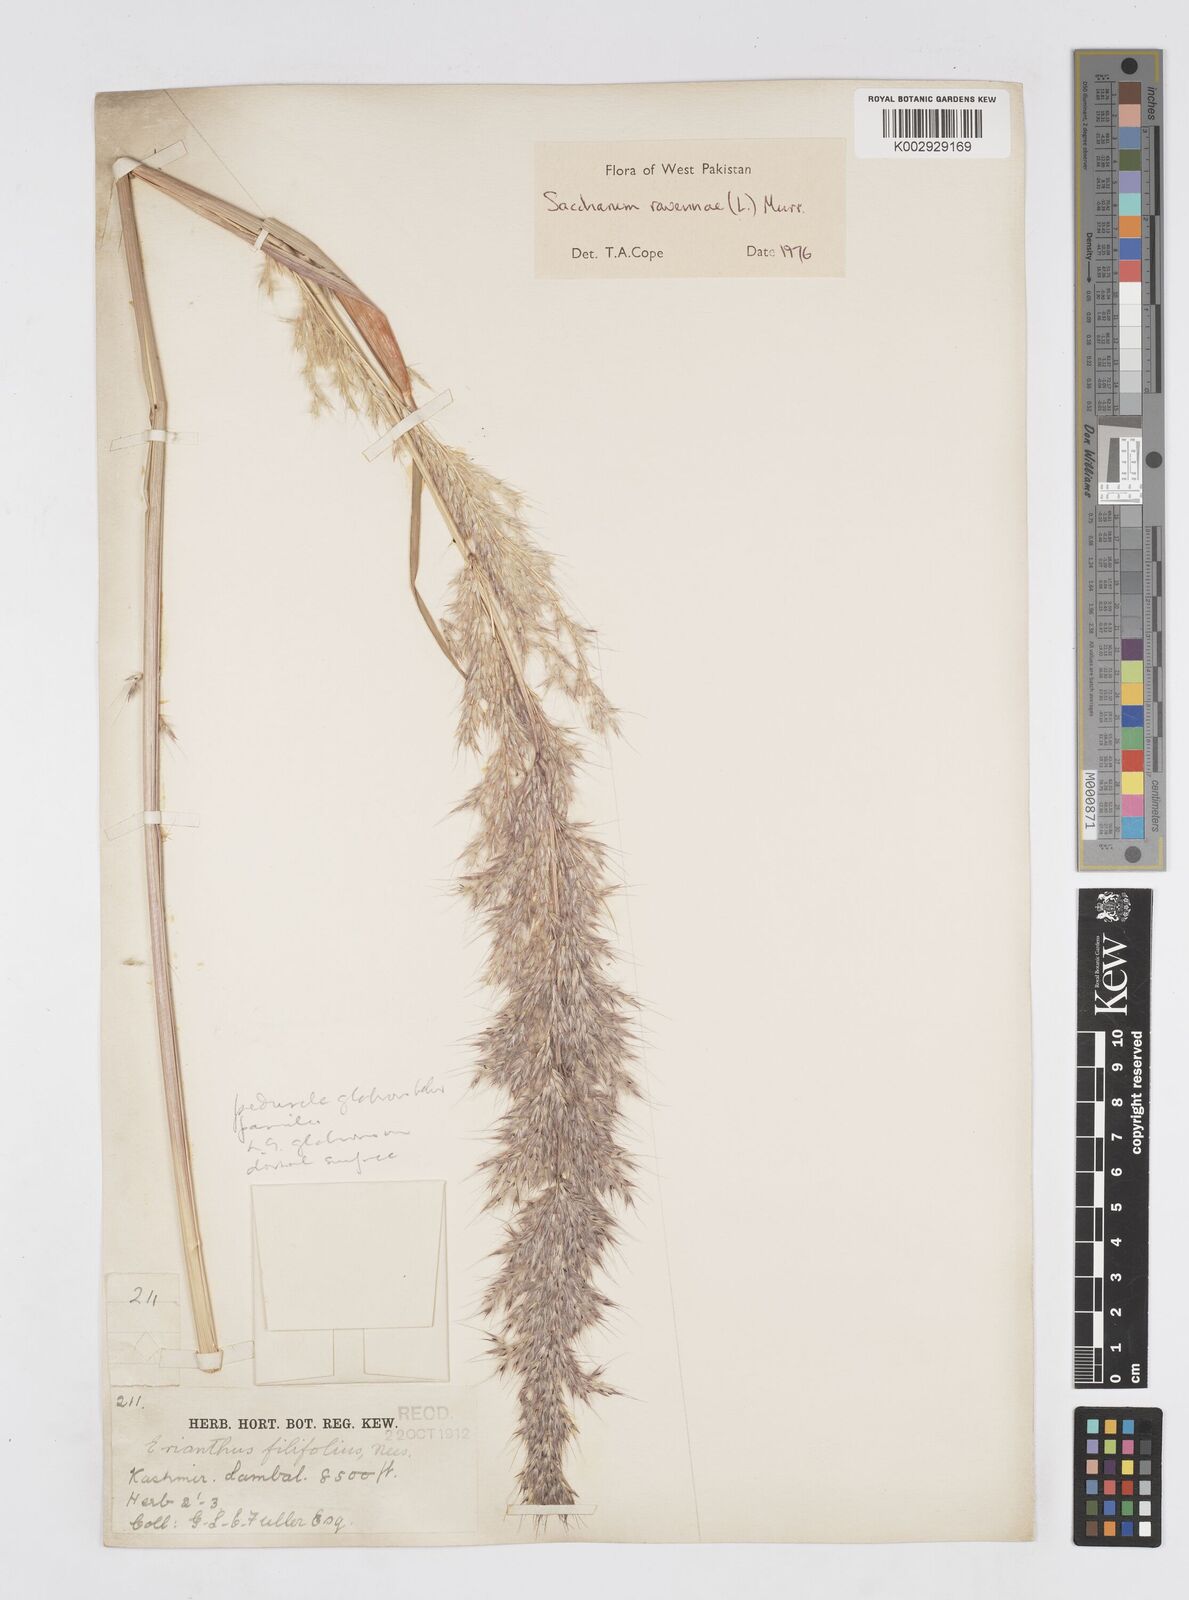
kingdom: Plantae
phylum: Tracheophyta
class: Liliopsida
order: Poales
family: Poaceae
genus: Tripidium
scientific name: Tripidium ravennae
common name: Ravenna grass
